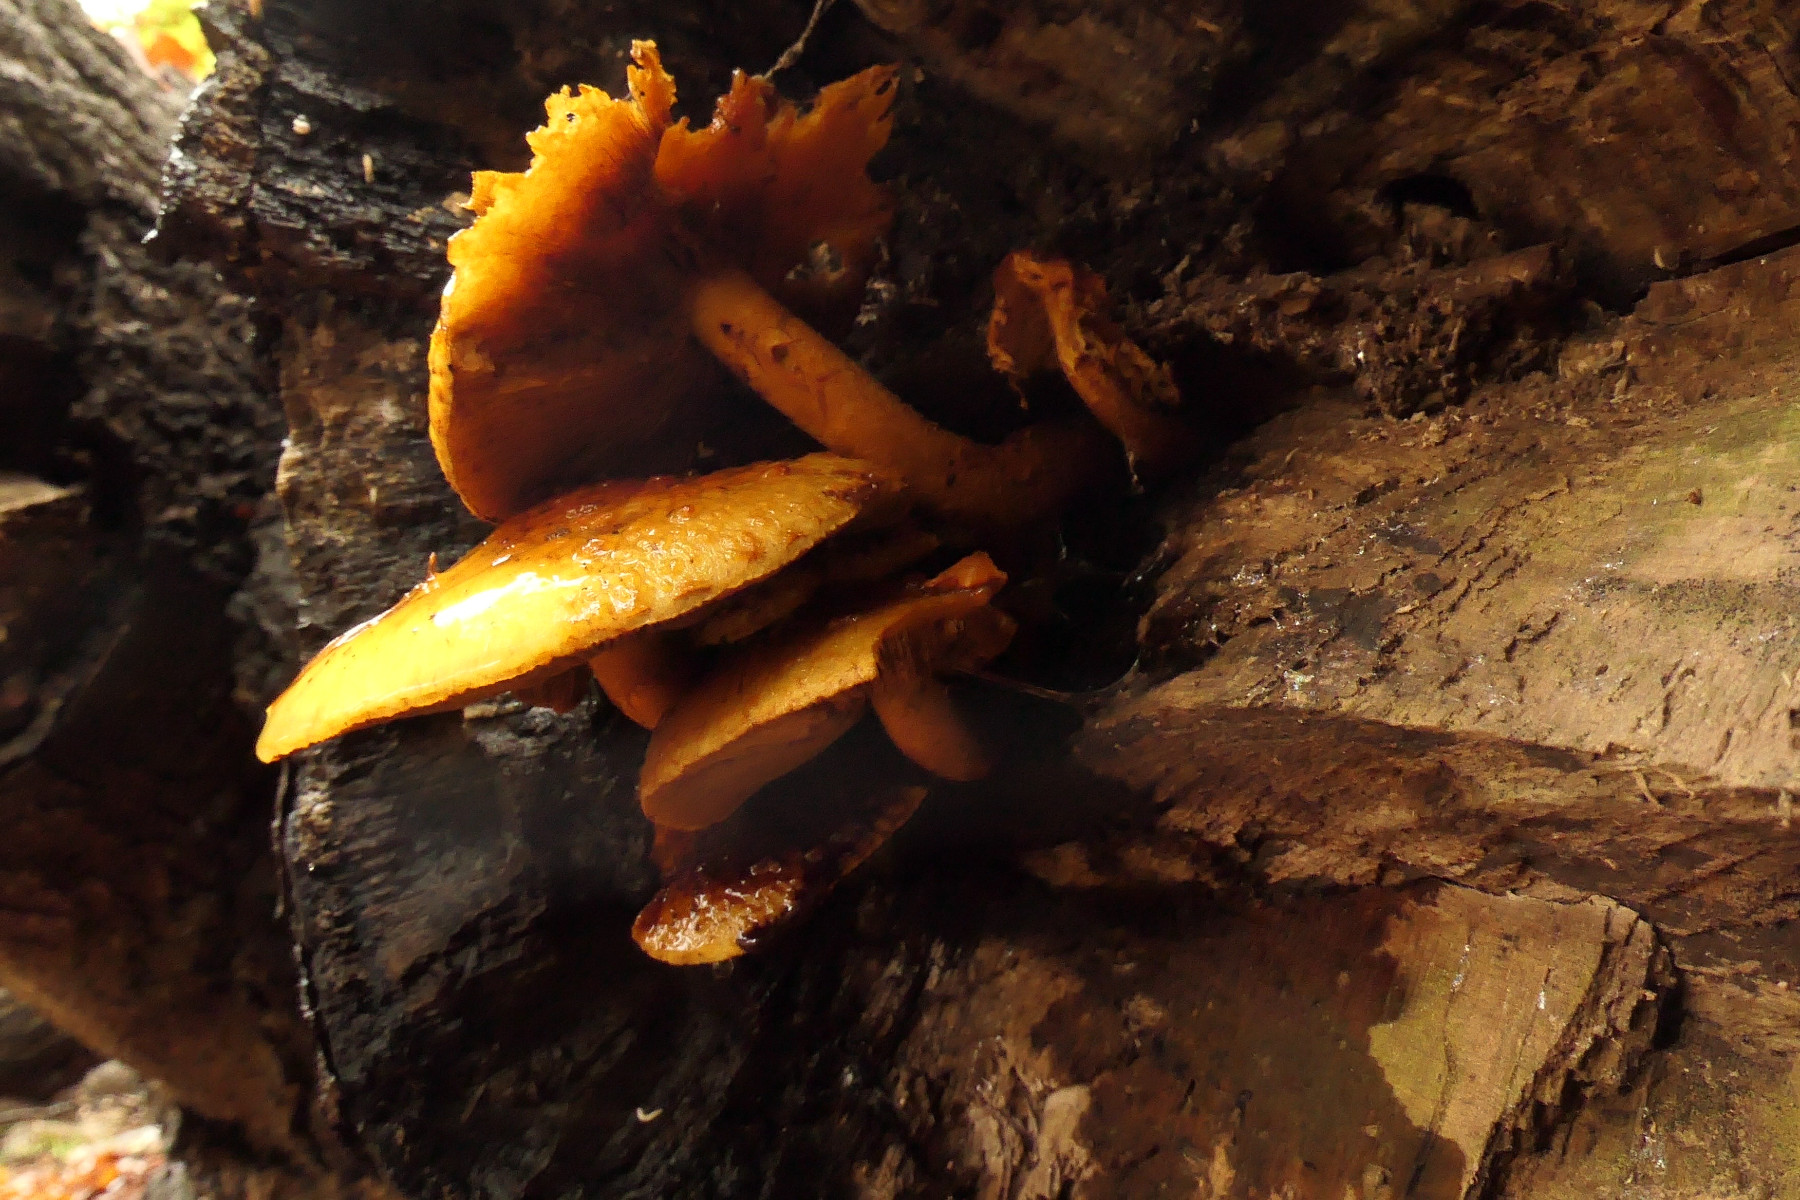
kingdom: Fungi
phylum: Basidiomycota
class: Agaricomycetes
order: Agaricales
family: Strophariaceae
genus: Pholiota
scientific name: Pholiota adiposa
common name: højtsiddende skælhat
